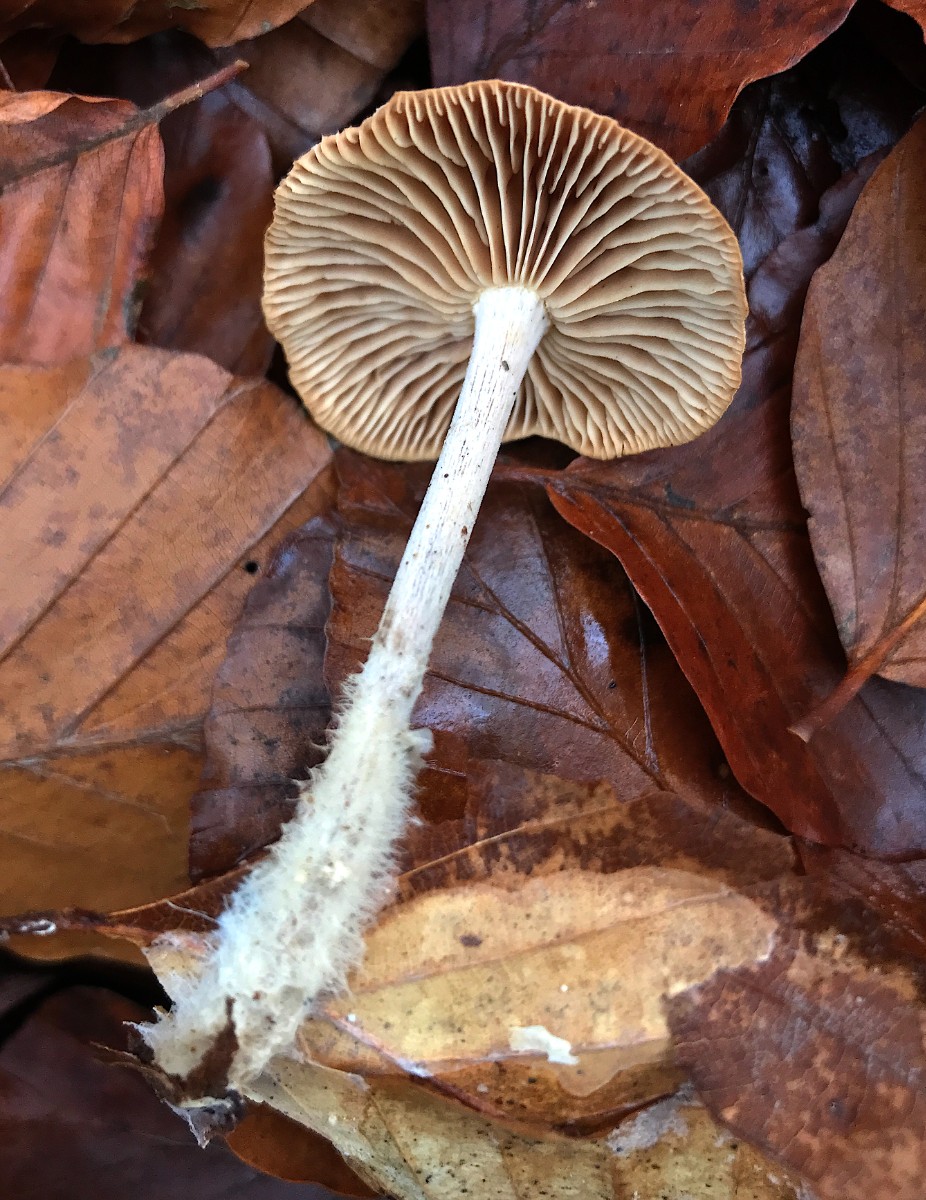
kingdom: Fungi
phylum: Basidiomycota
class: Agaricomycetes
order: Agaricales
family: Omphalotaceae
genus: Collybiopsis
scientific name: Collybiopsis peronata
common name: bestøvlet fladhat
